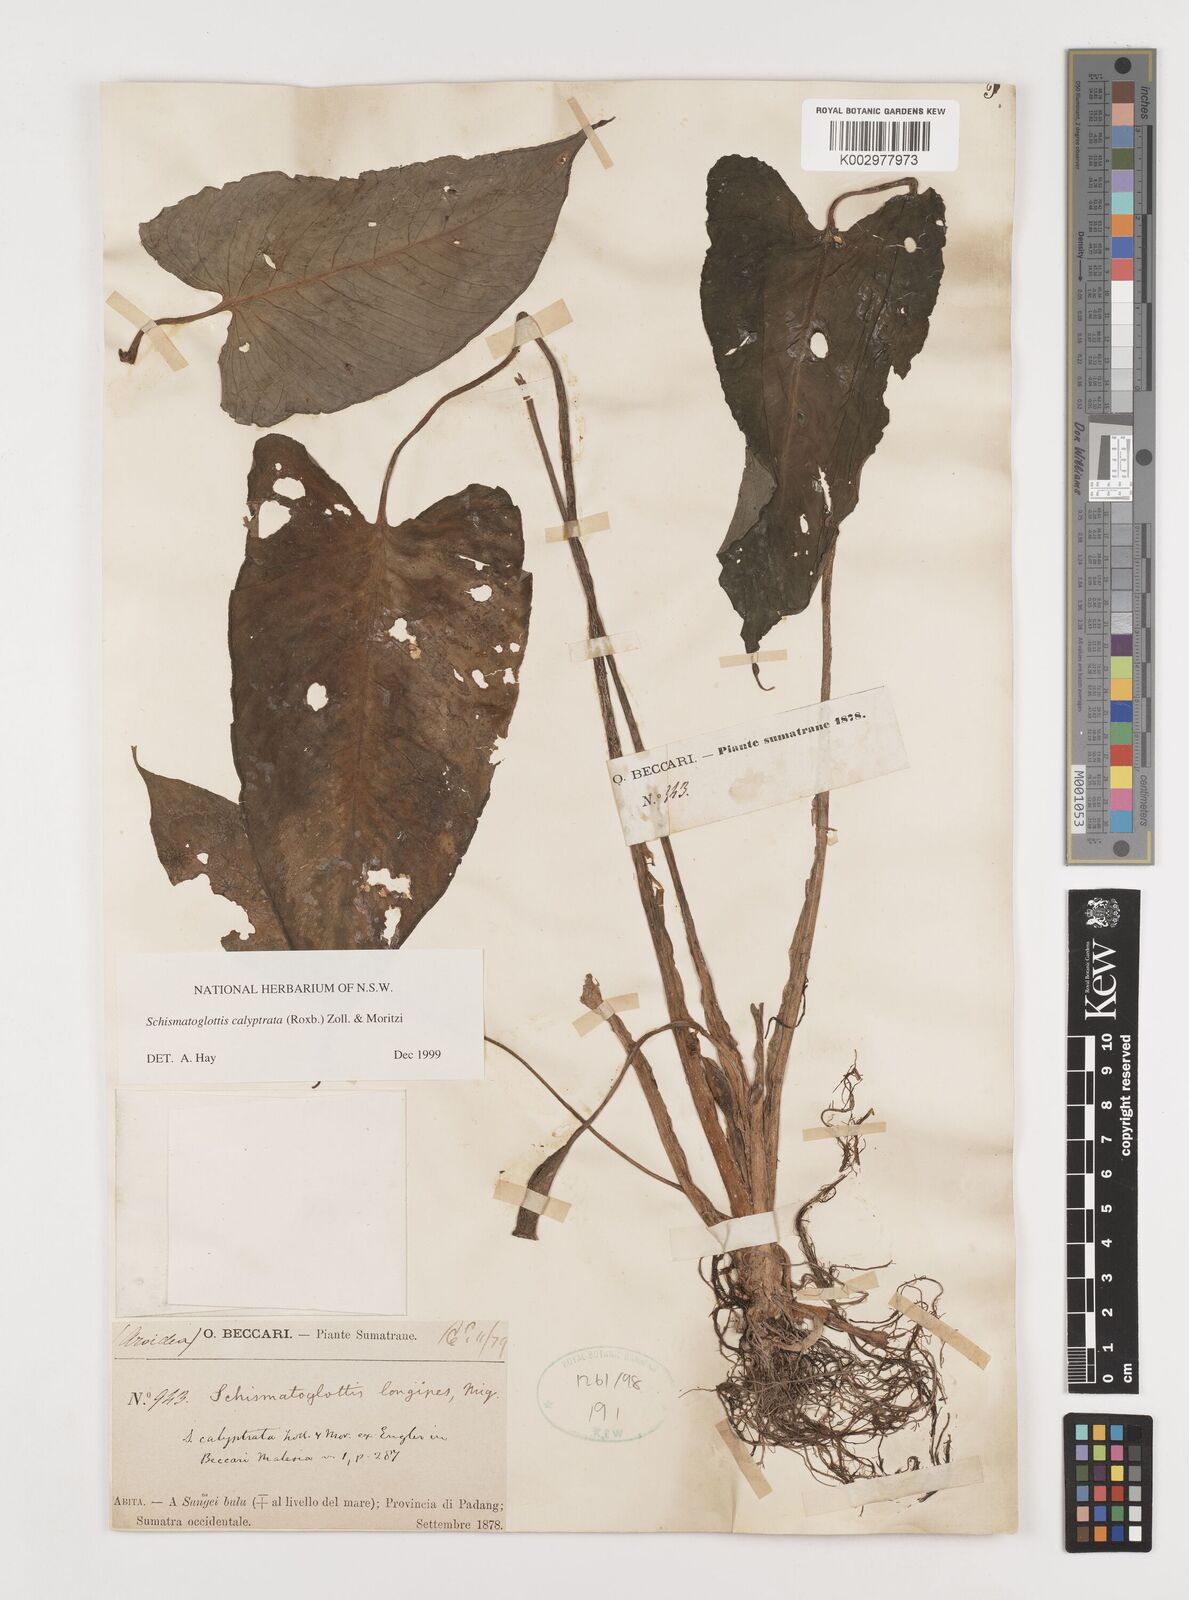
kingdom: Plantae
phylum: Tracheophyta
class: Liliopsida
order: Alismatales
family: Araceae
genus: Schismatoglottis
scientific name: Schismatoglottis calyptrata
